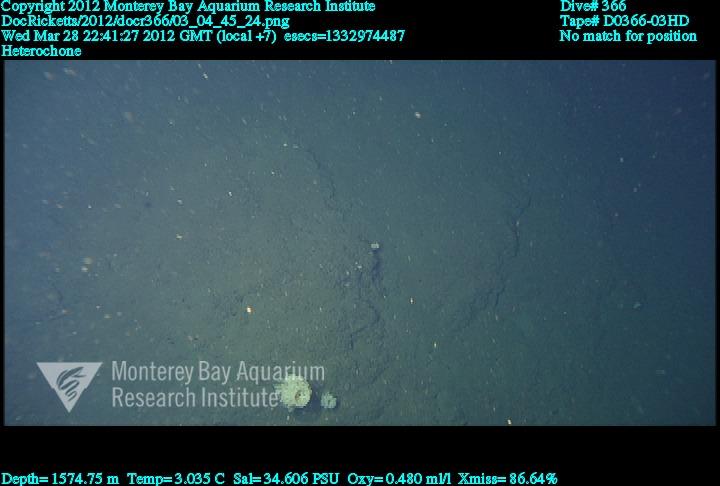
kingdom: Animalia
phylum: Porifera
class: Hexactinellida
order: Sceptrulophora
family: Aphrocallistidae
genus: Heterochone
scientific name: Heterochone
